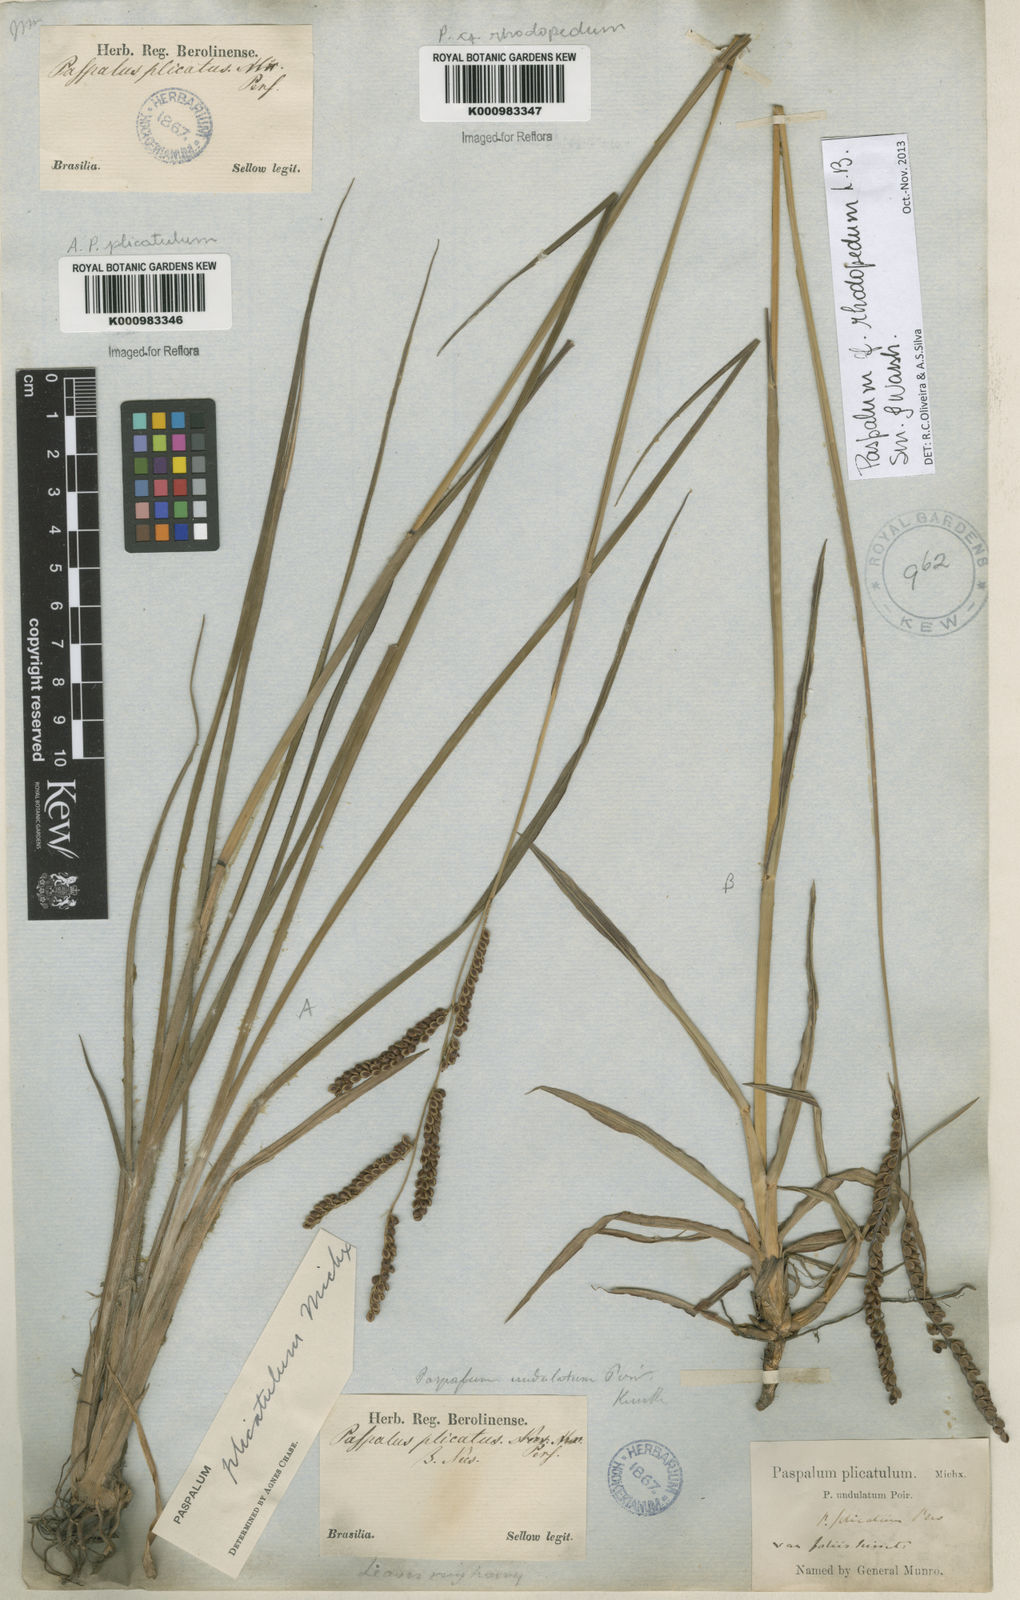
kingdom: Plantae
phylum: Tracheophyta
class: Liliopsida
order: Poales
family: Poaceae
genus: Paspalum
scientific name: Paspalum guenoarum
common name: Wintergreen paspalum
